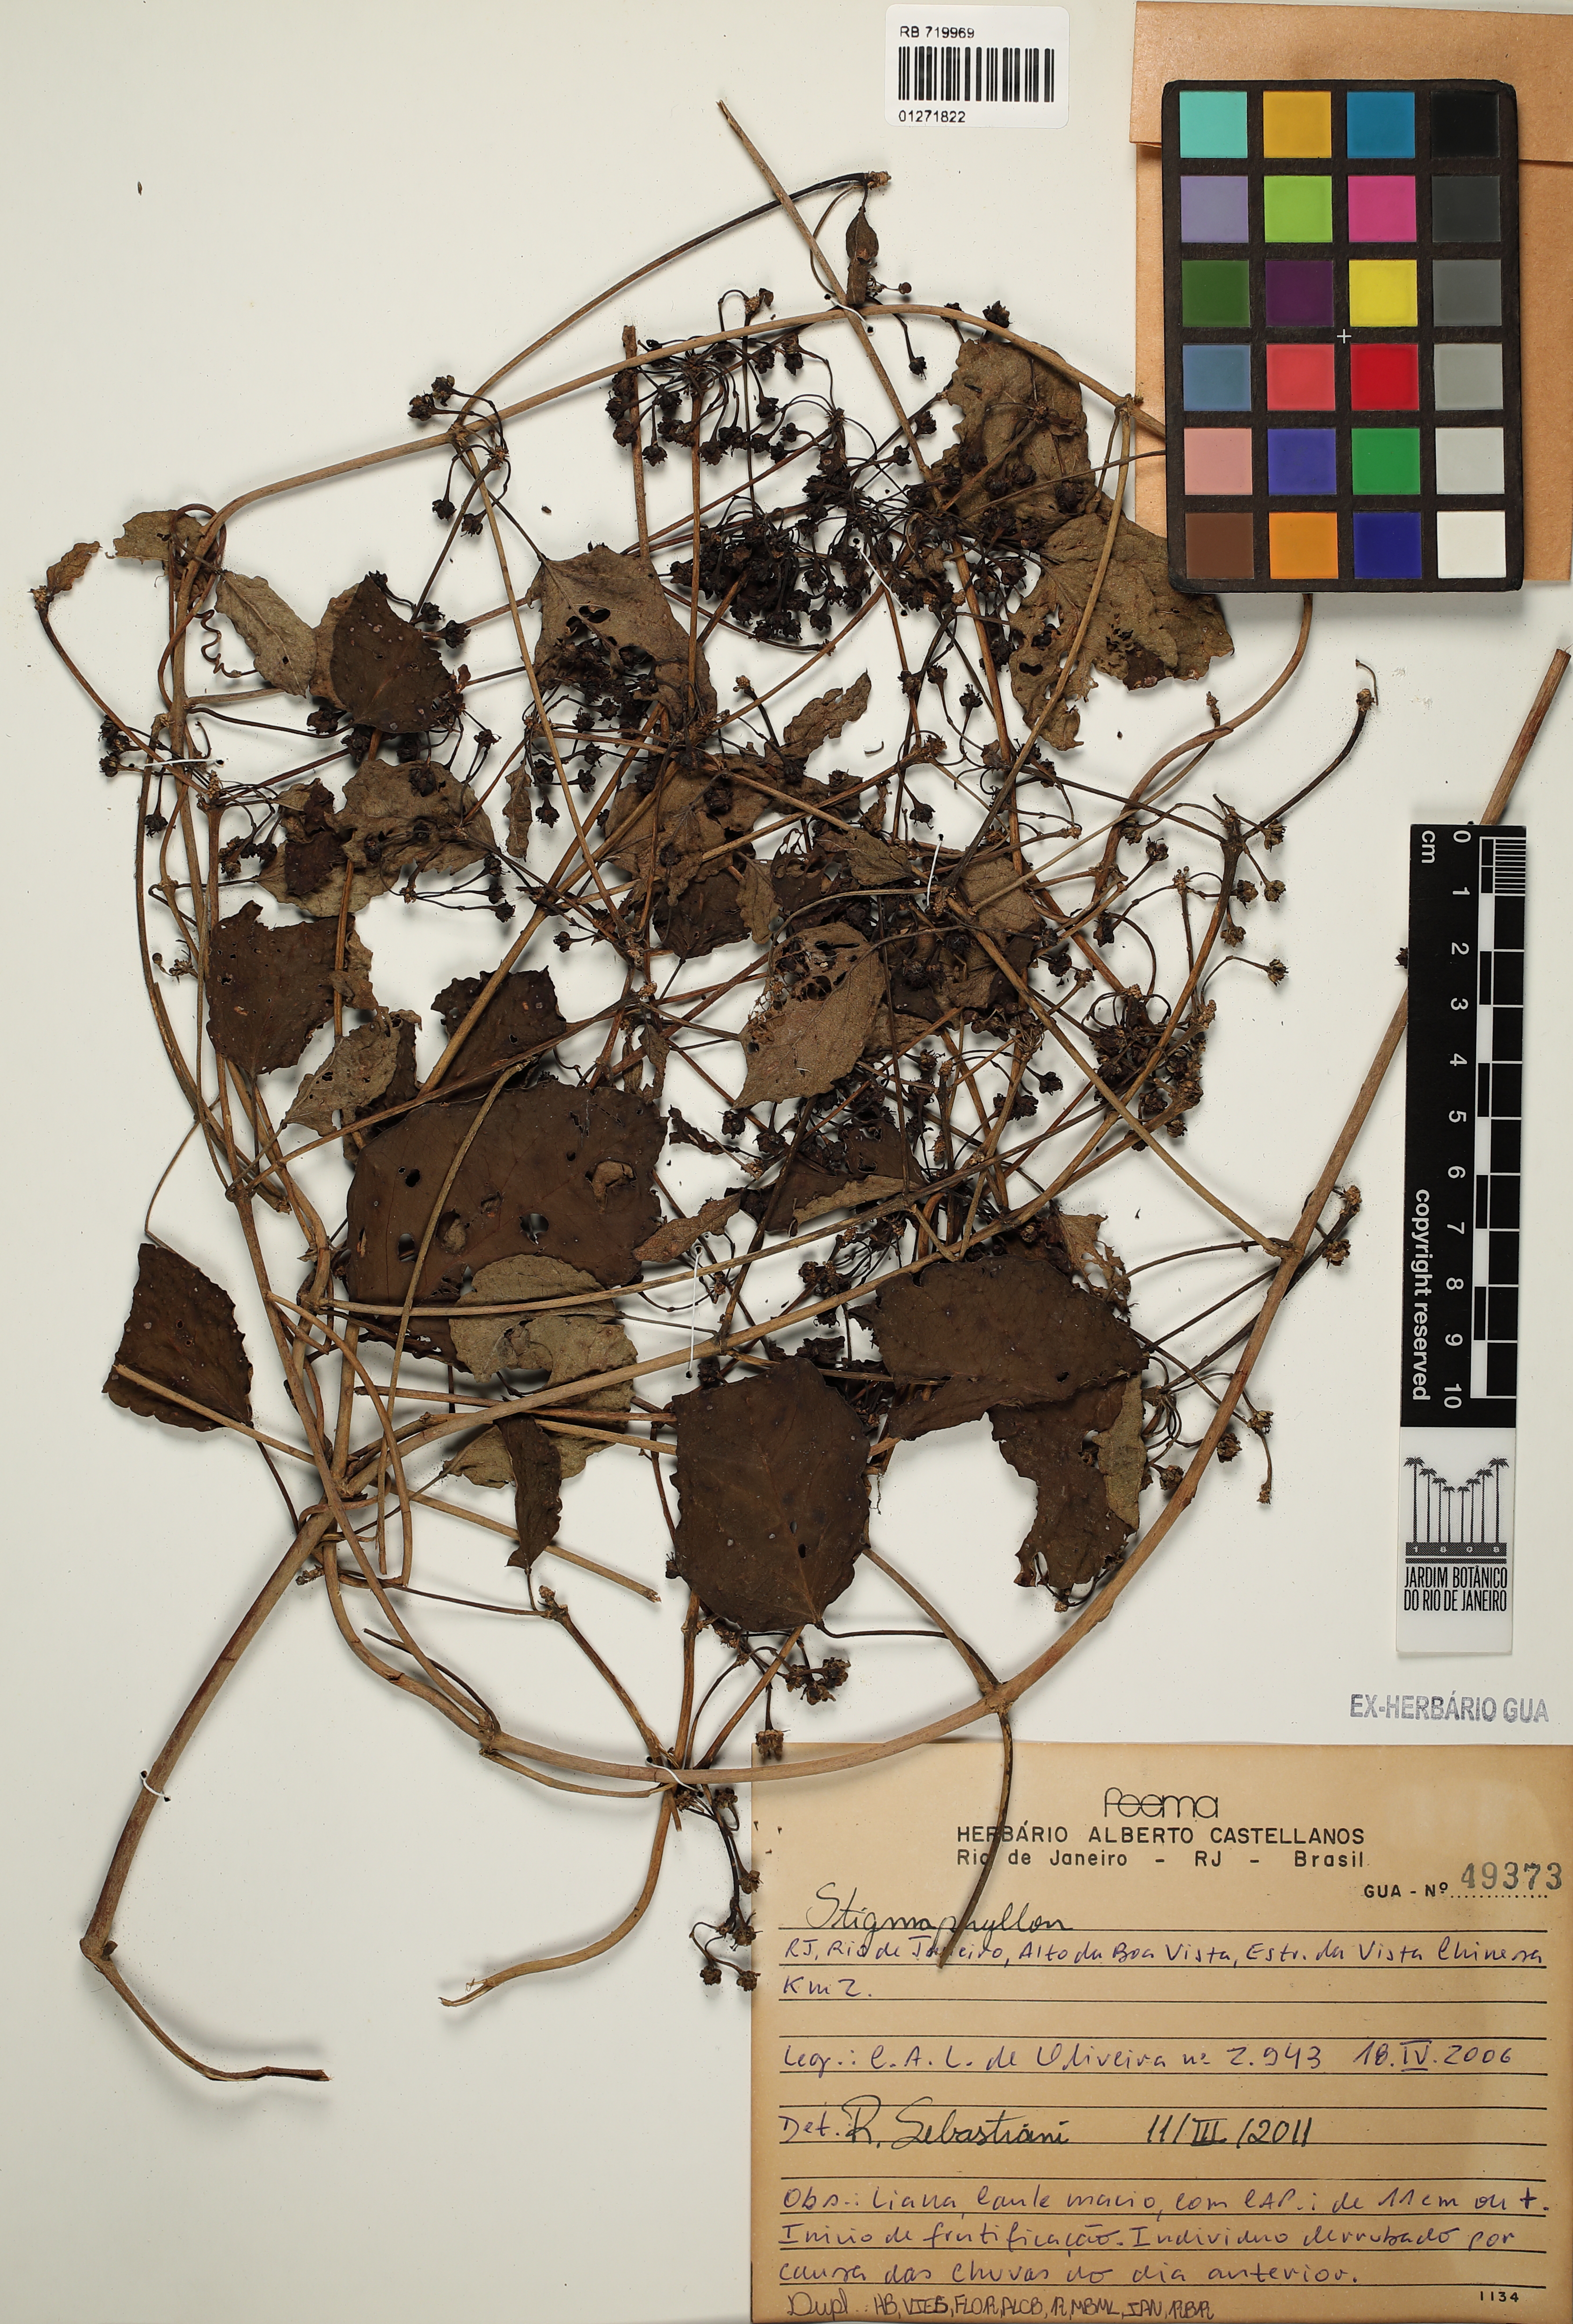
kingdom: Plantae
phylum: Tracheophyta
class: Magnoliopsida
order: Malpighiales
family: Malpighiaceae
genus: Stigmaphyllon
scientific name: Stigmaphyllon
